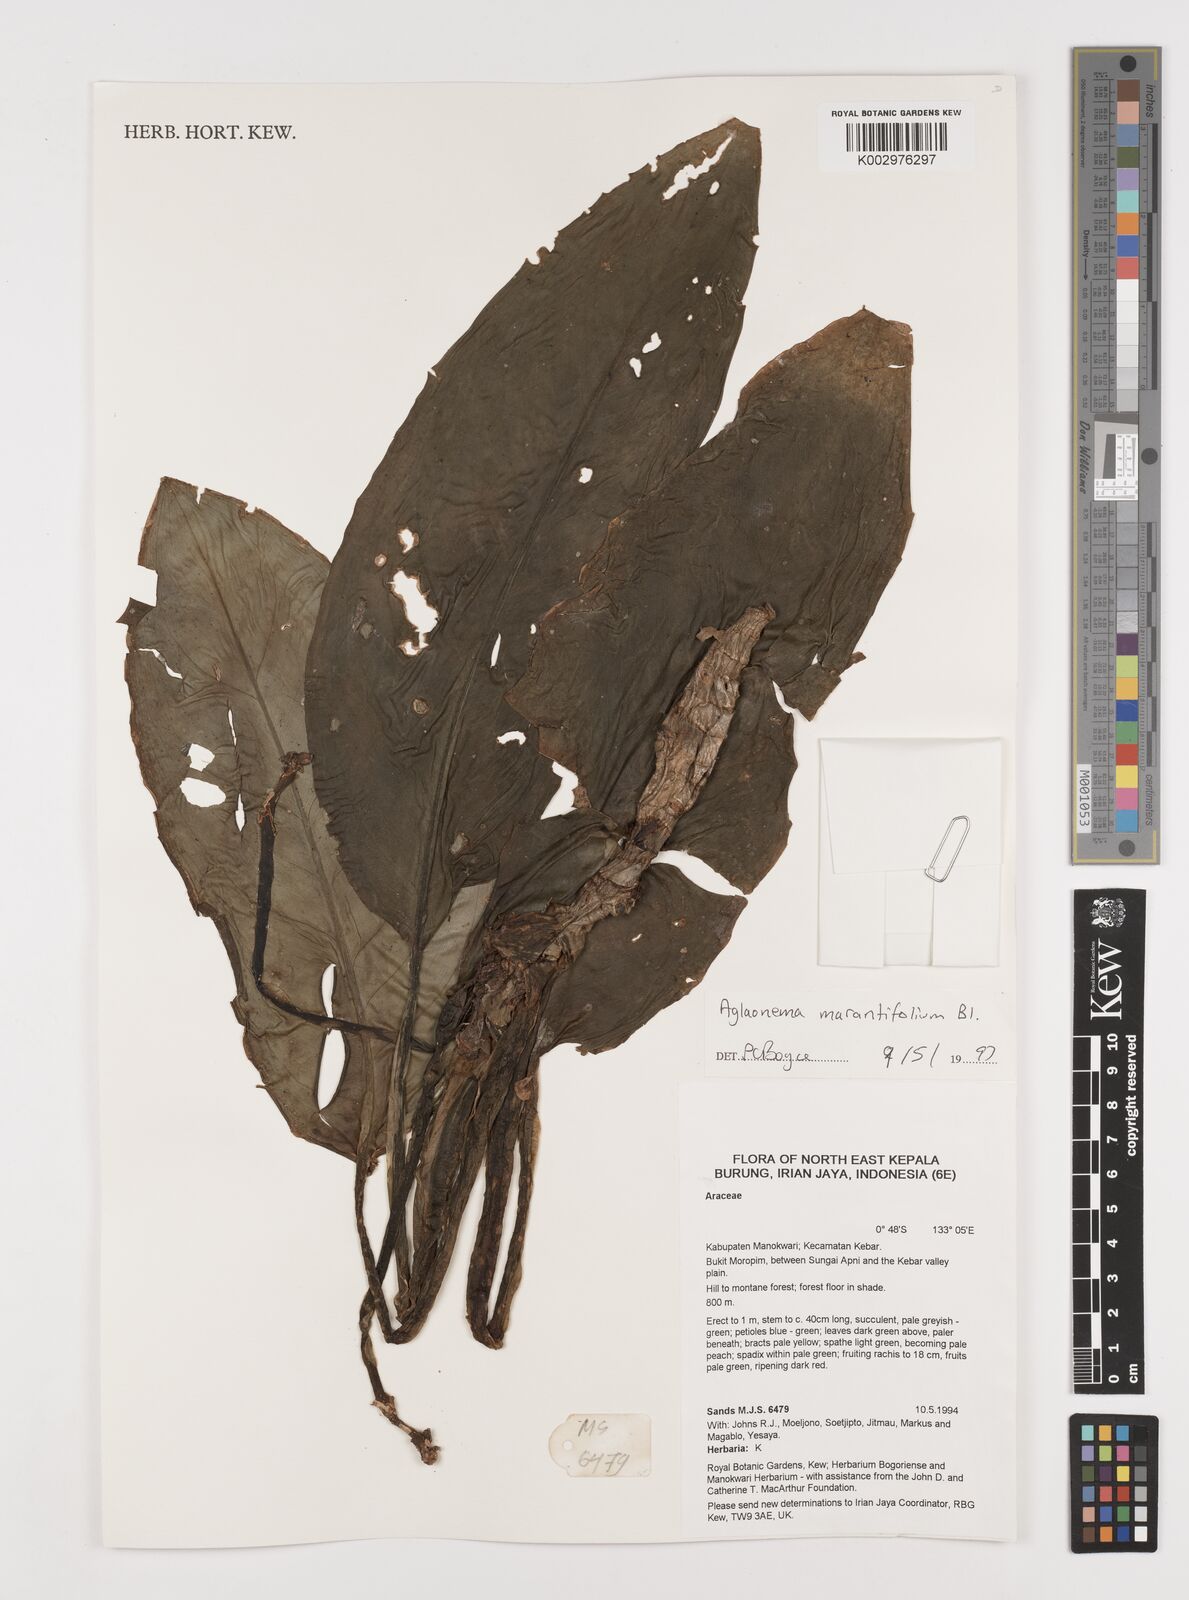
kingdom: Plantae
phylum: Tracheophyta
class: Liliopsida
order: Alismatales
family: Araceae
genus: Aglaonema
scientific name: Aglaonema marantifolium
